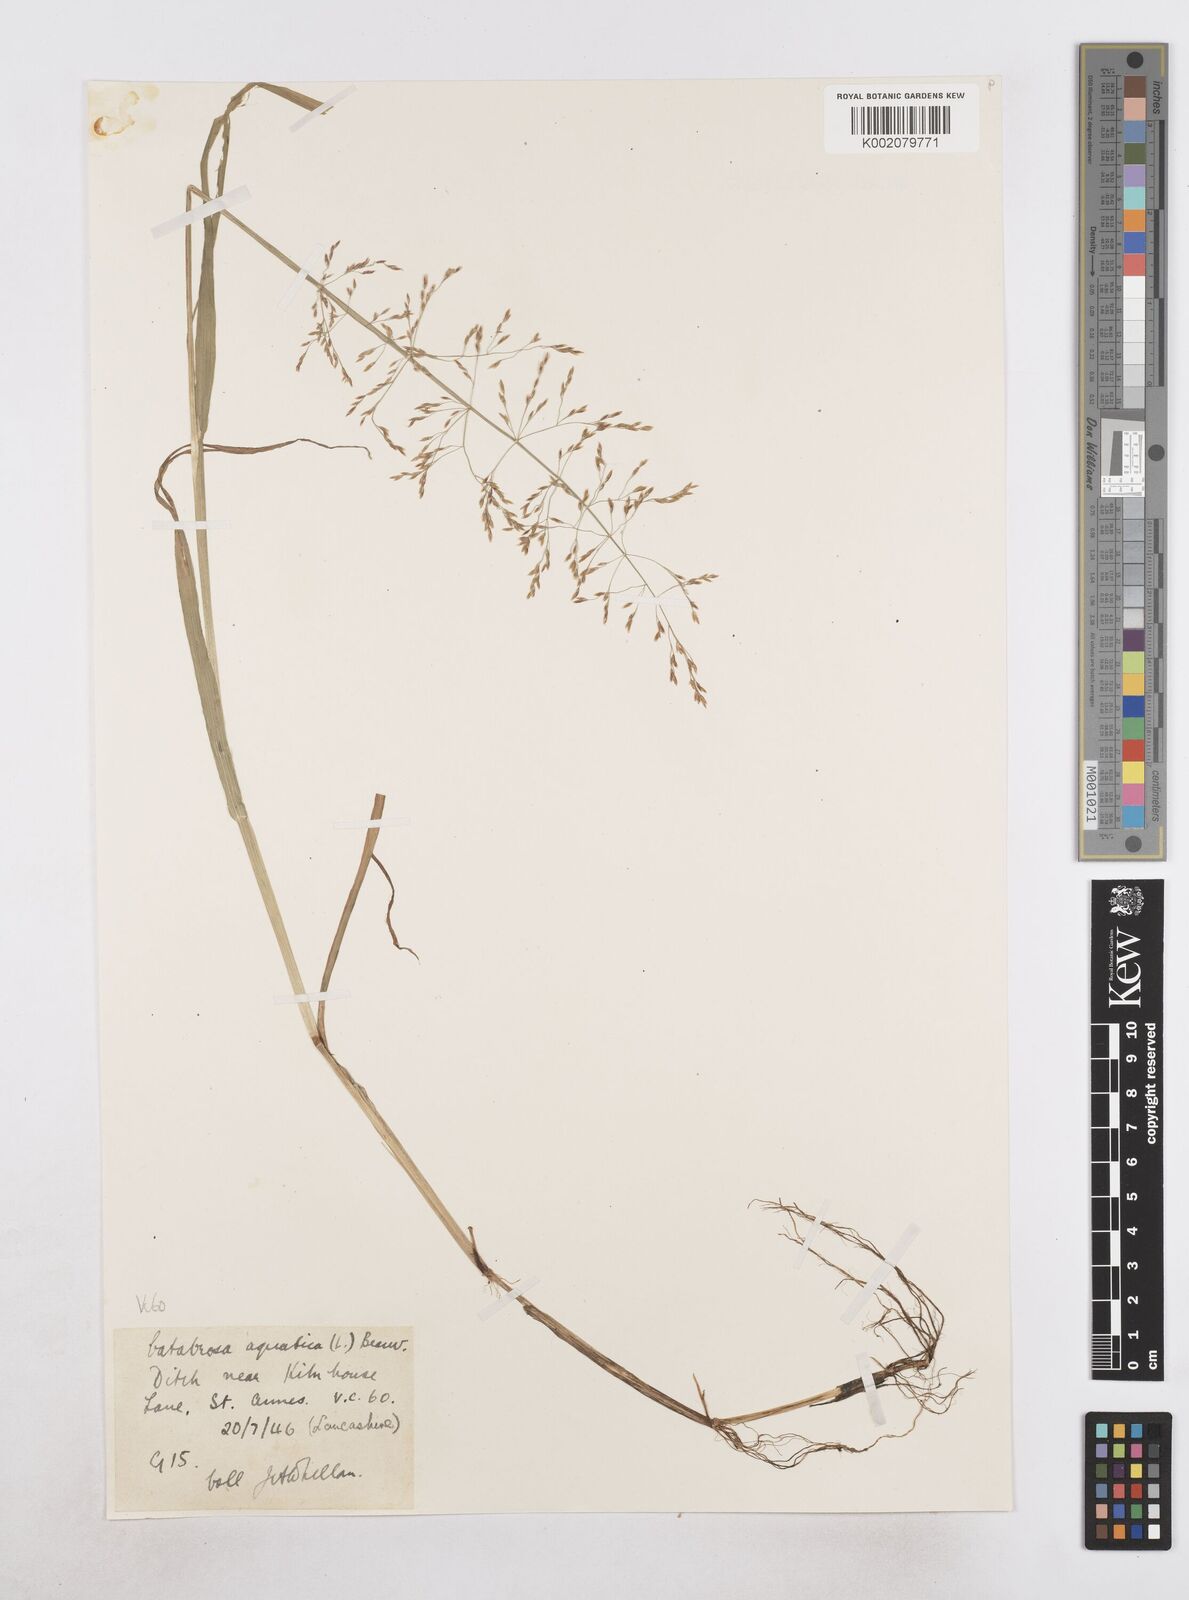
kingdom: Plantae
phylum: Tracheophyta
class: Liliopsida
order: Poales
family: Poaceae
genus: Catabrosa
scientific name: Catabrosa aquatica
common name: Whorl-grass
